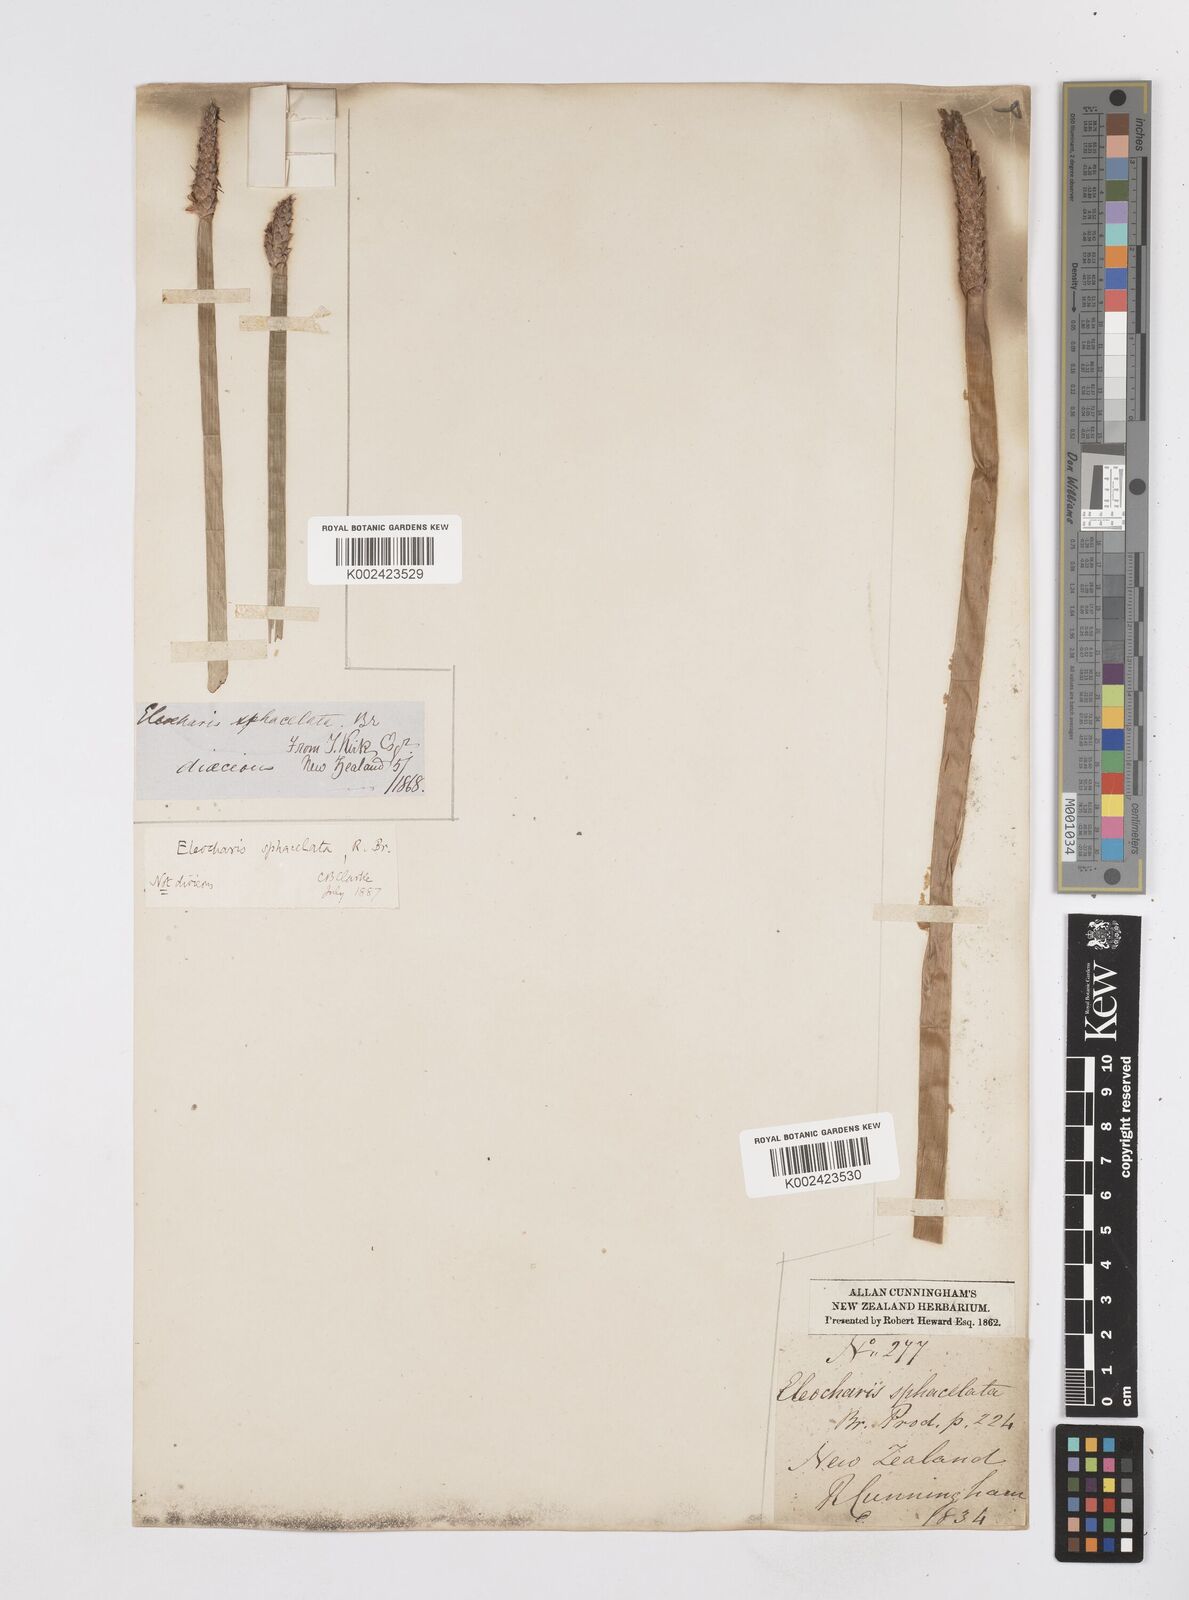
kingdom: Plantae
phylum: Tracheophyta
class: Liliopsida
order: Poales
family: Cyperaceae
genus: Eleocharis
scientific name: Eleocharis sphacelata
